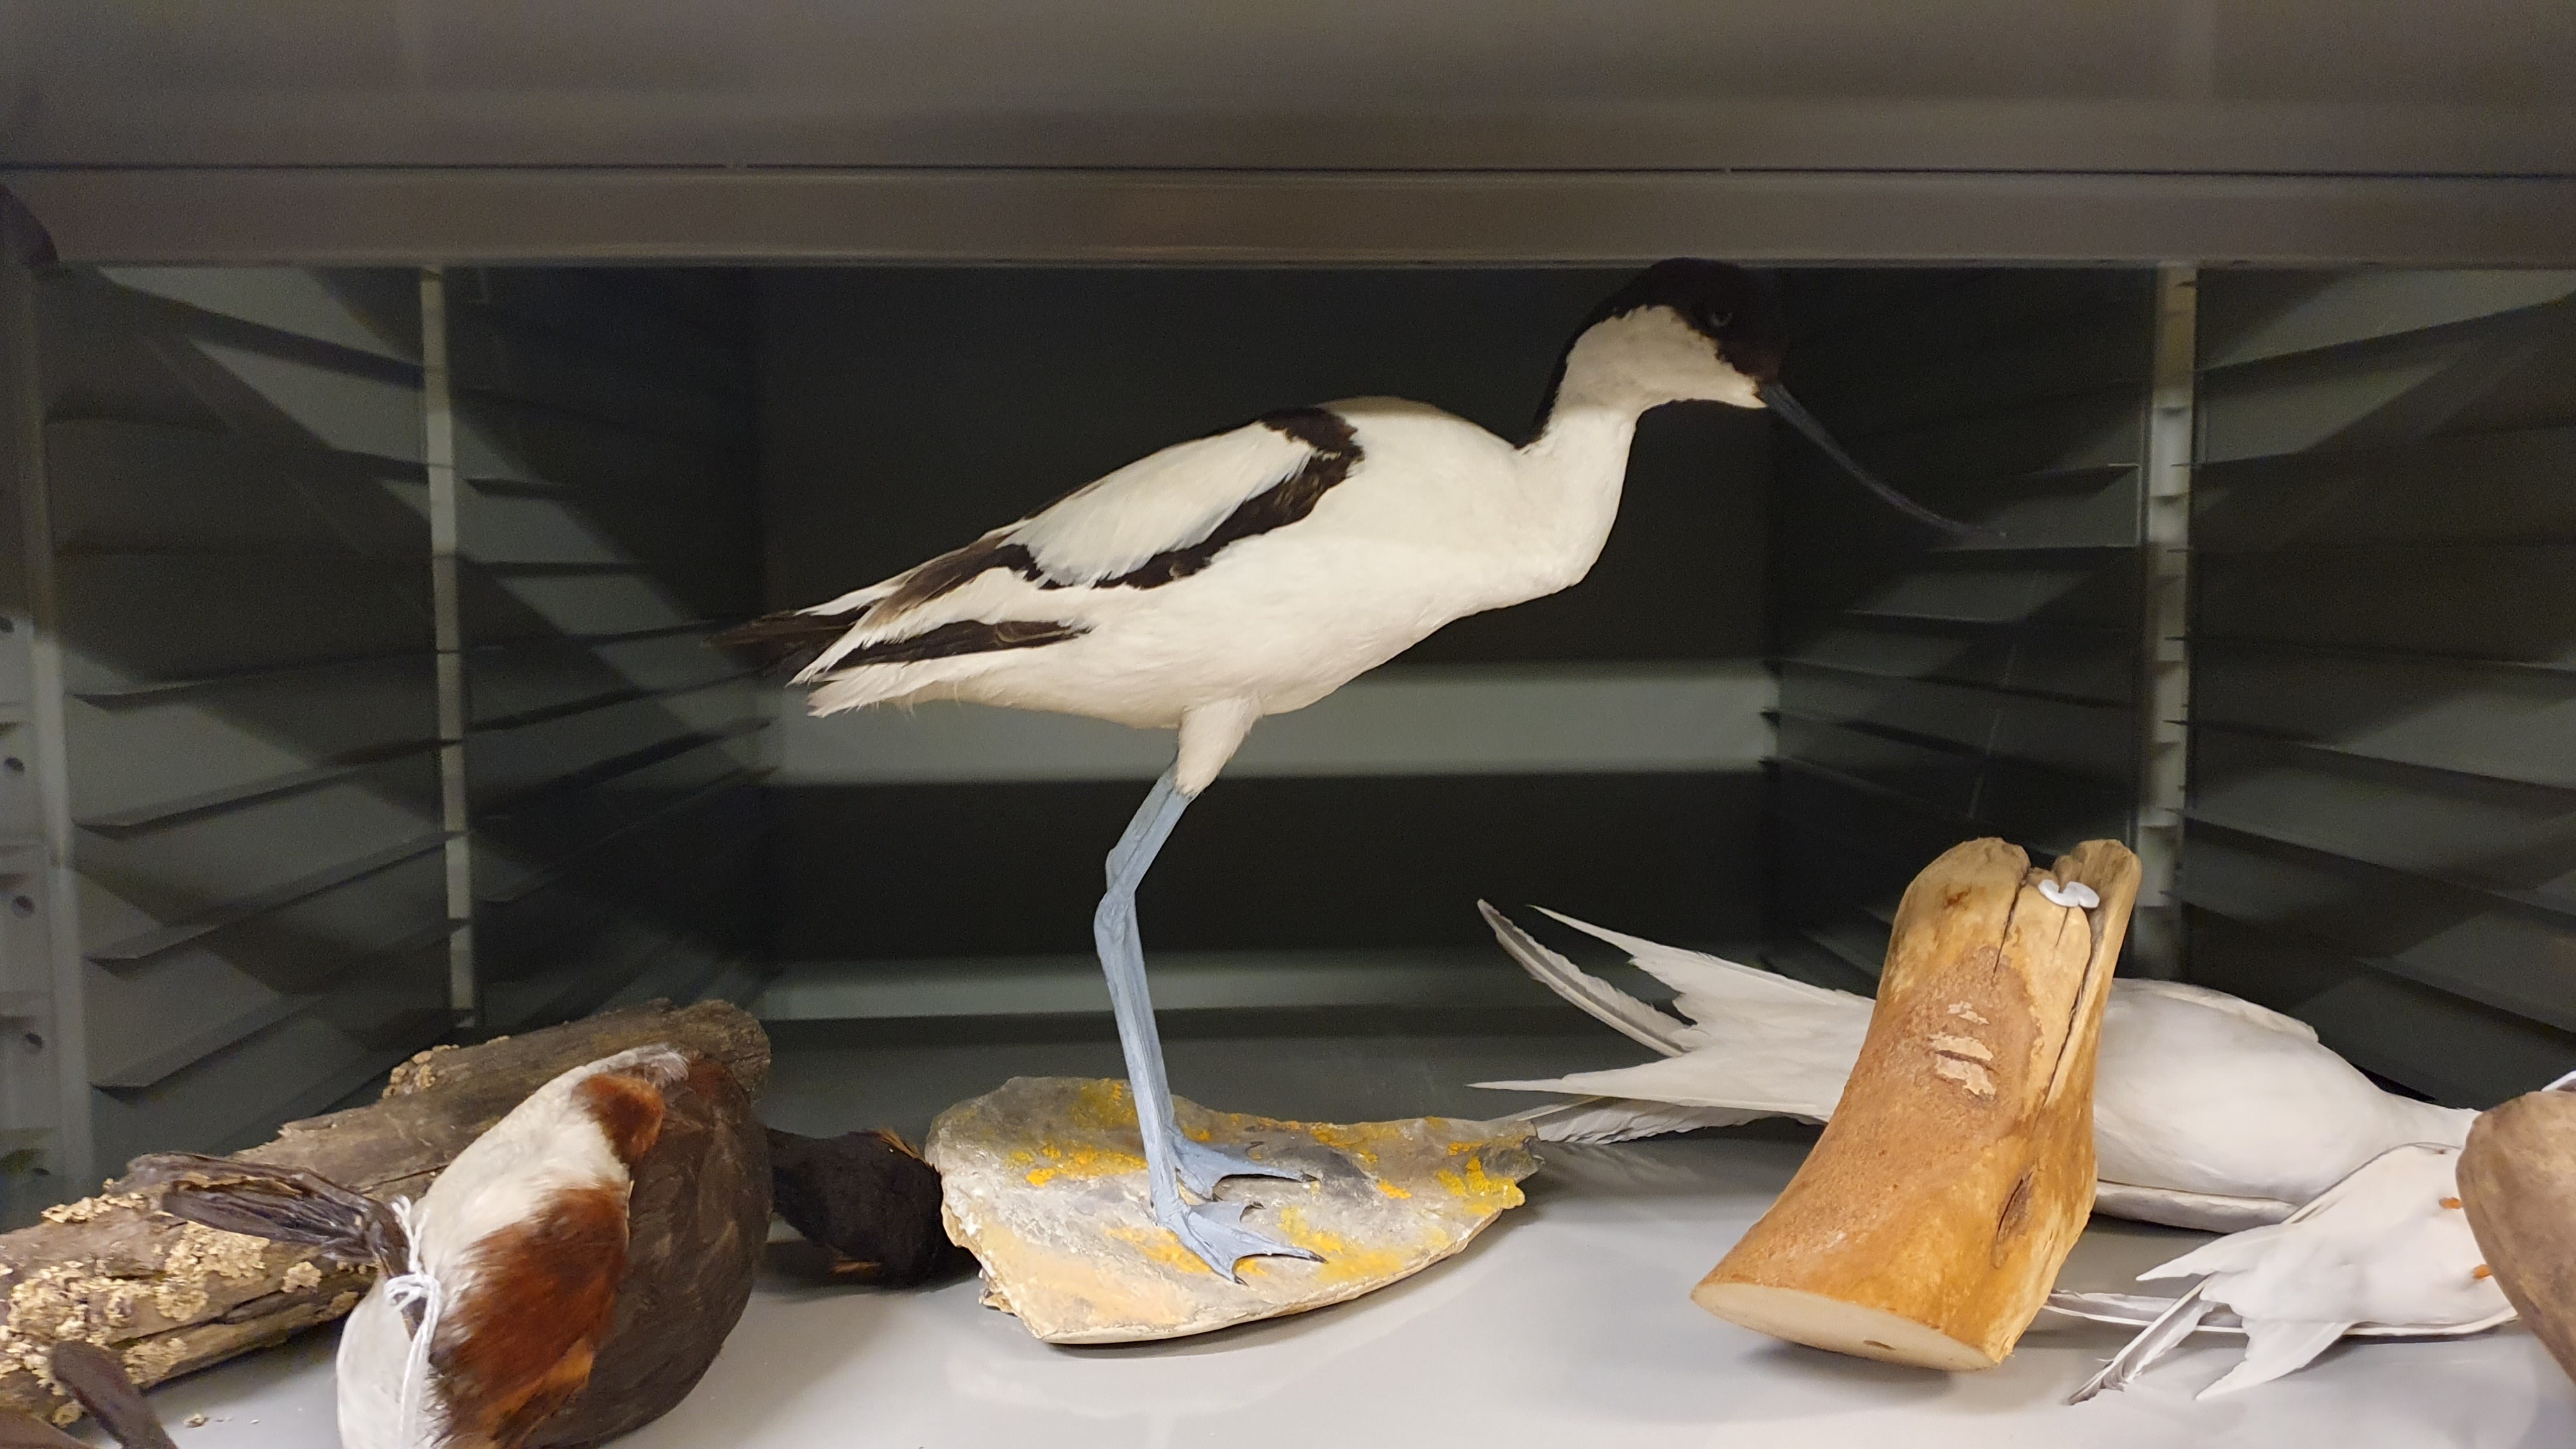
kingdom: Animalia
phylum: Chordata
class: Aves
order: Charadriiformes
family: Recurvirostridae
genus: Recurvirostra
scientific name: Recurvirostra avosetta
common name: Pied avocet
